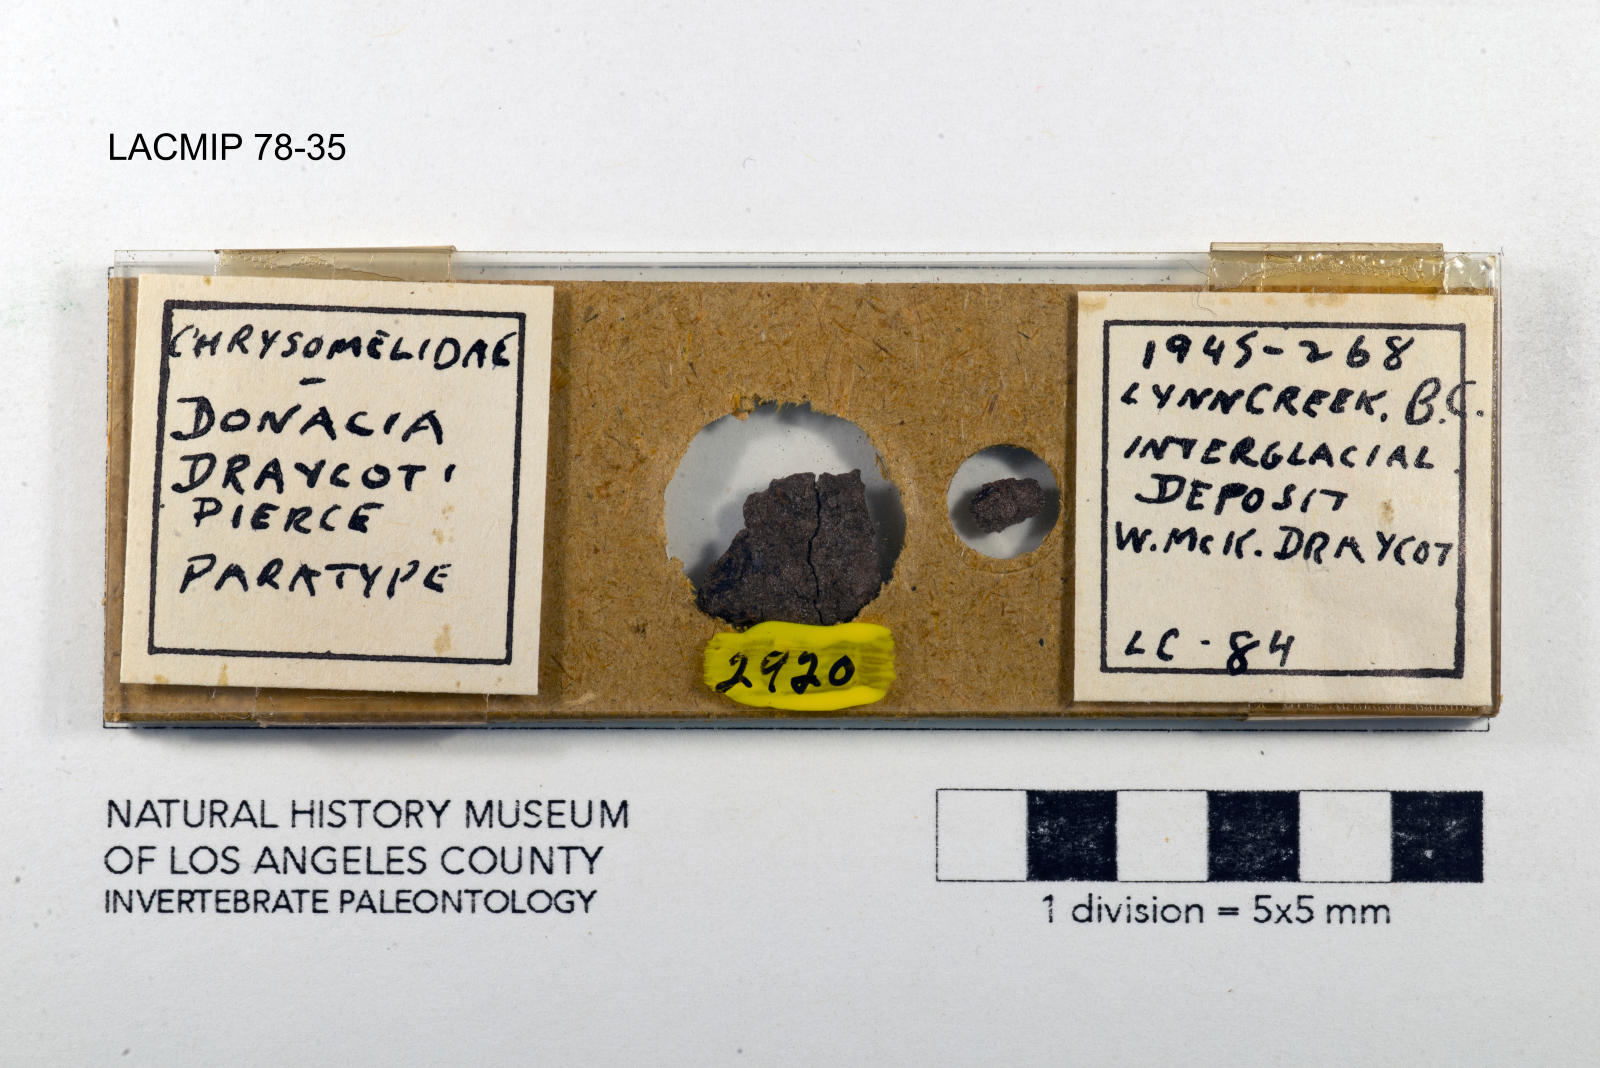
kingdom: Animalia
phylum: Arthropoda
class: Insecta
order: Coleoptera
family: Chrysomelidae
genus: Donacia
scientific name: Donacia draycoti
